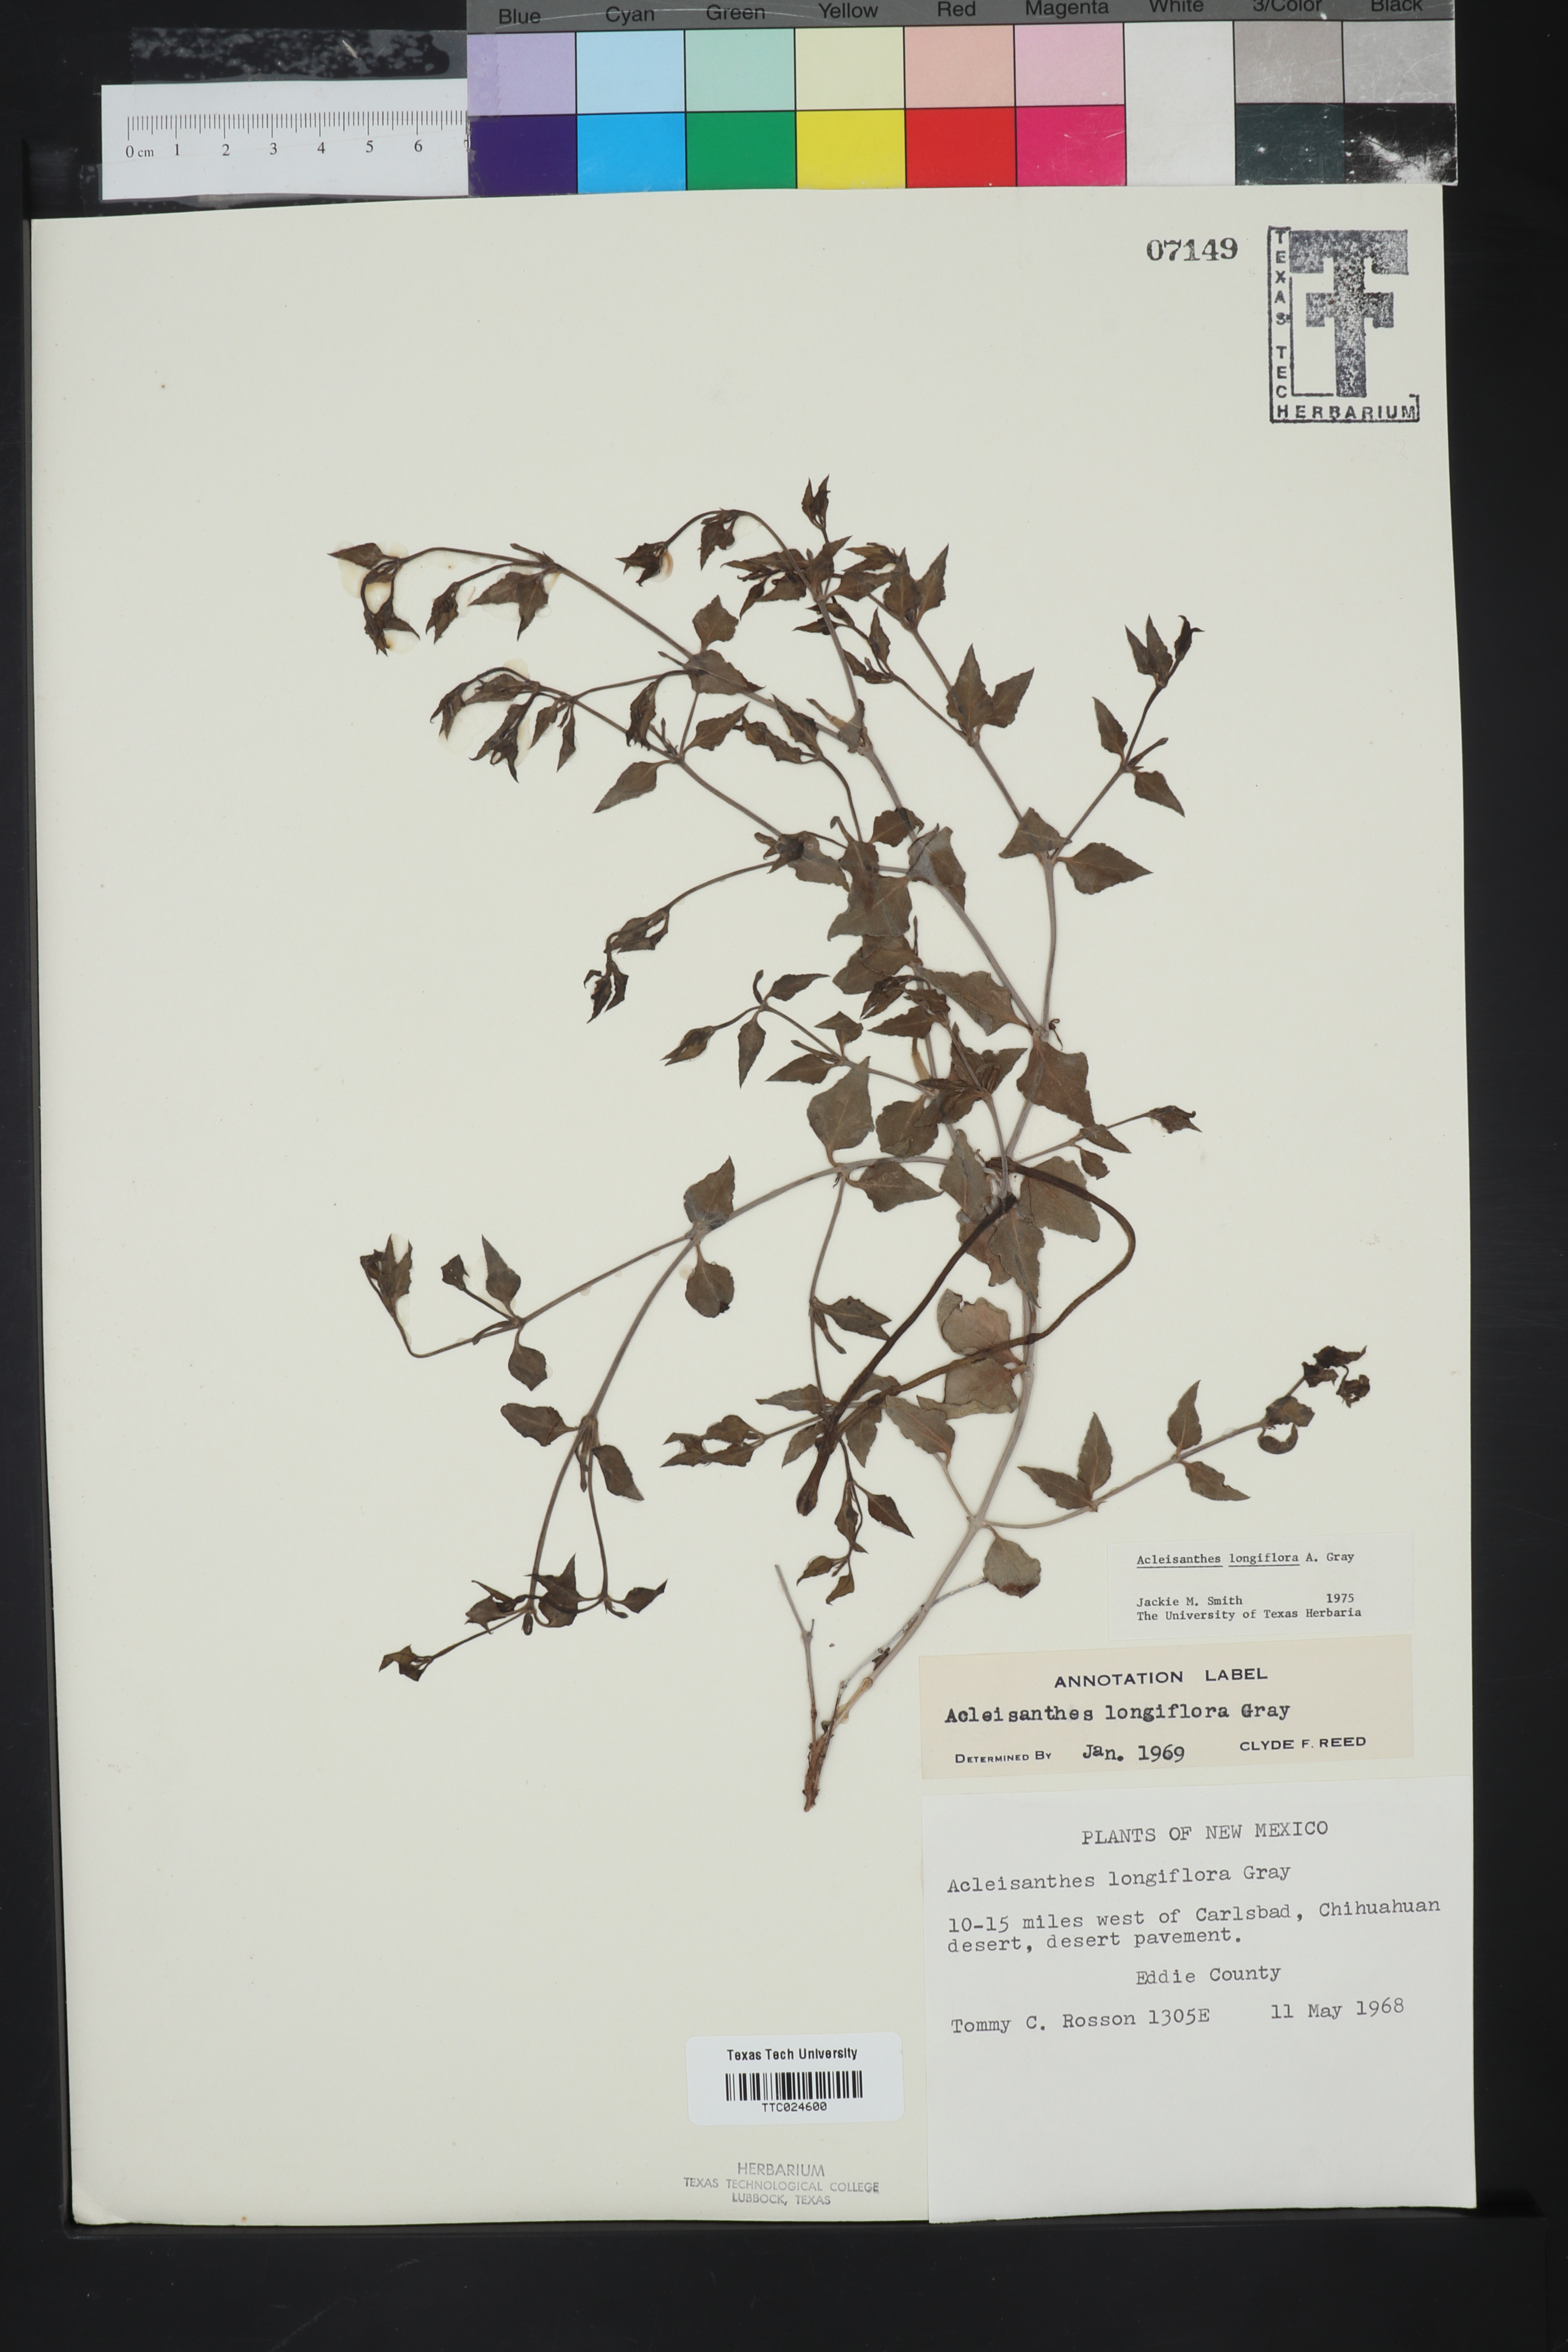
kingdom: Plantae
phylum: Tracheophyta
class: Magnoliopsida
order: Caryophyllales
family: Nyctaginaceae
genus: Acleisanthes
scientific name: Acleisanthes longiflora
